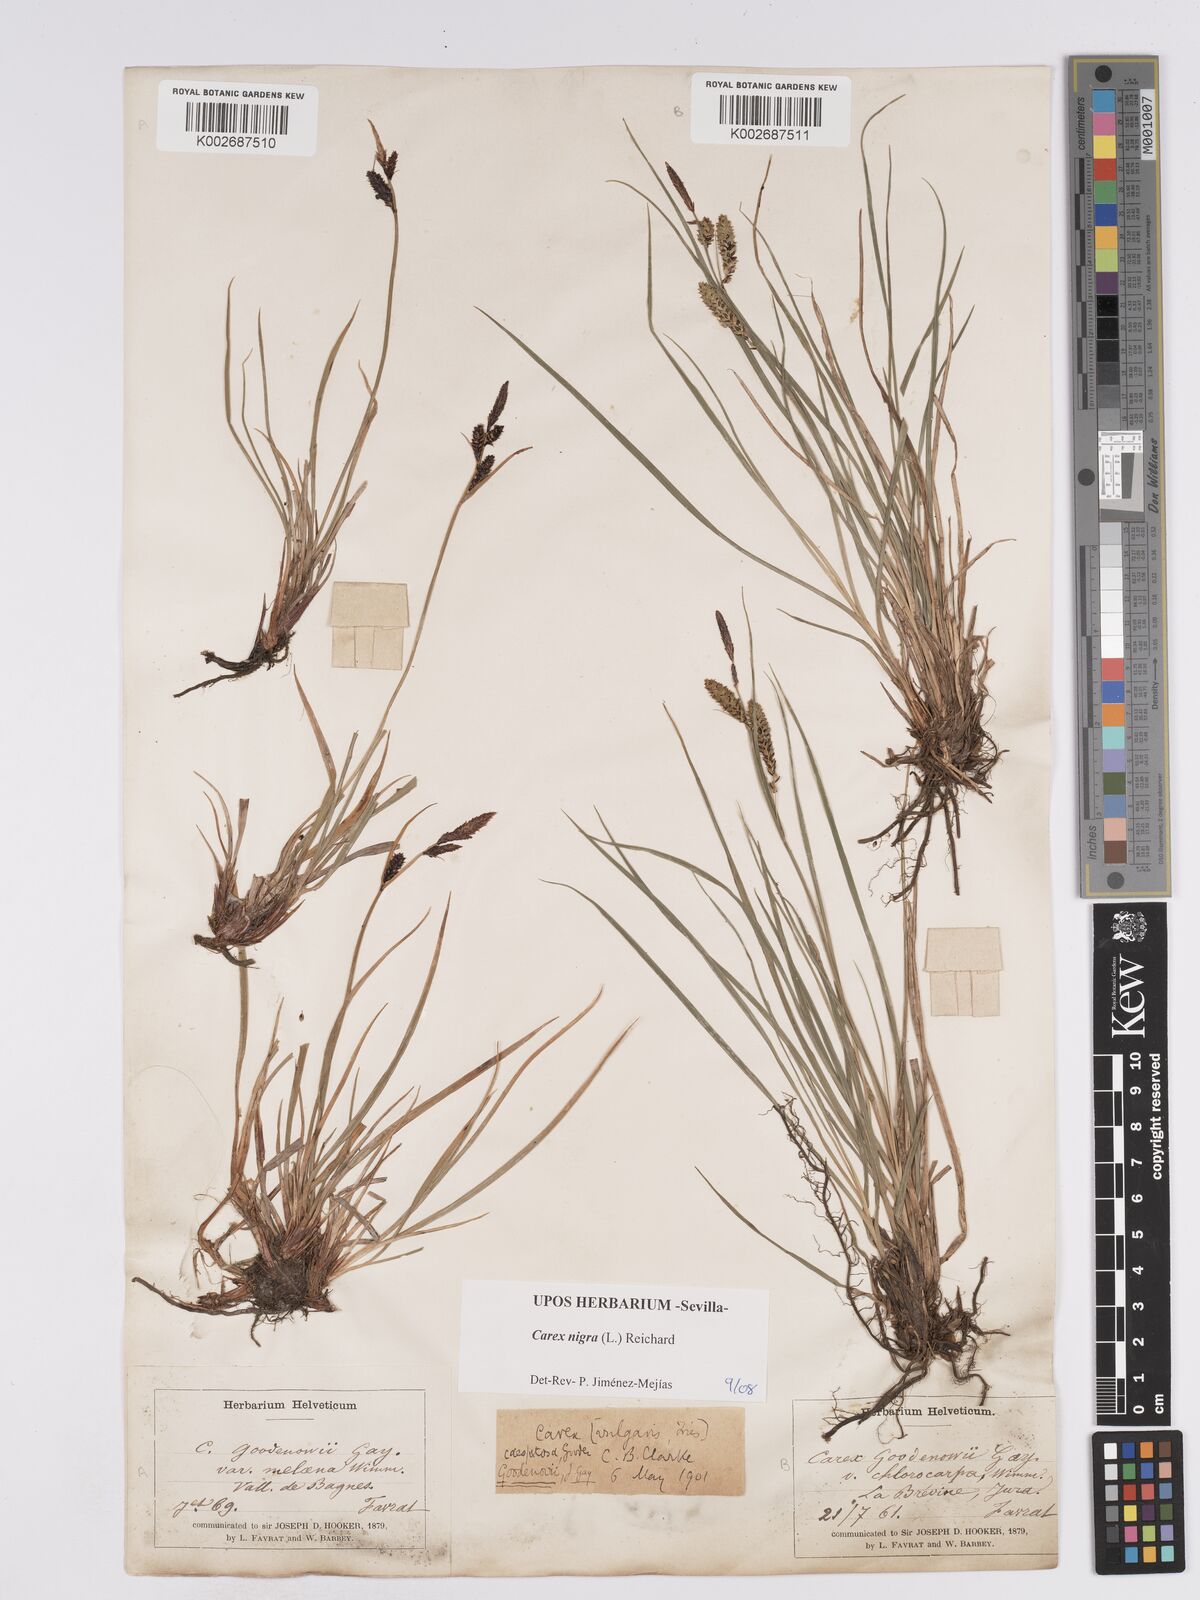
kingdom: Plantae
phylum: Tracheophyta
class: Liliopsida
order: Poales
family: Cyperaceae
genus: Carex
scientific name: Carex nigra
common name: Common sedge
